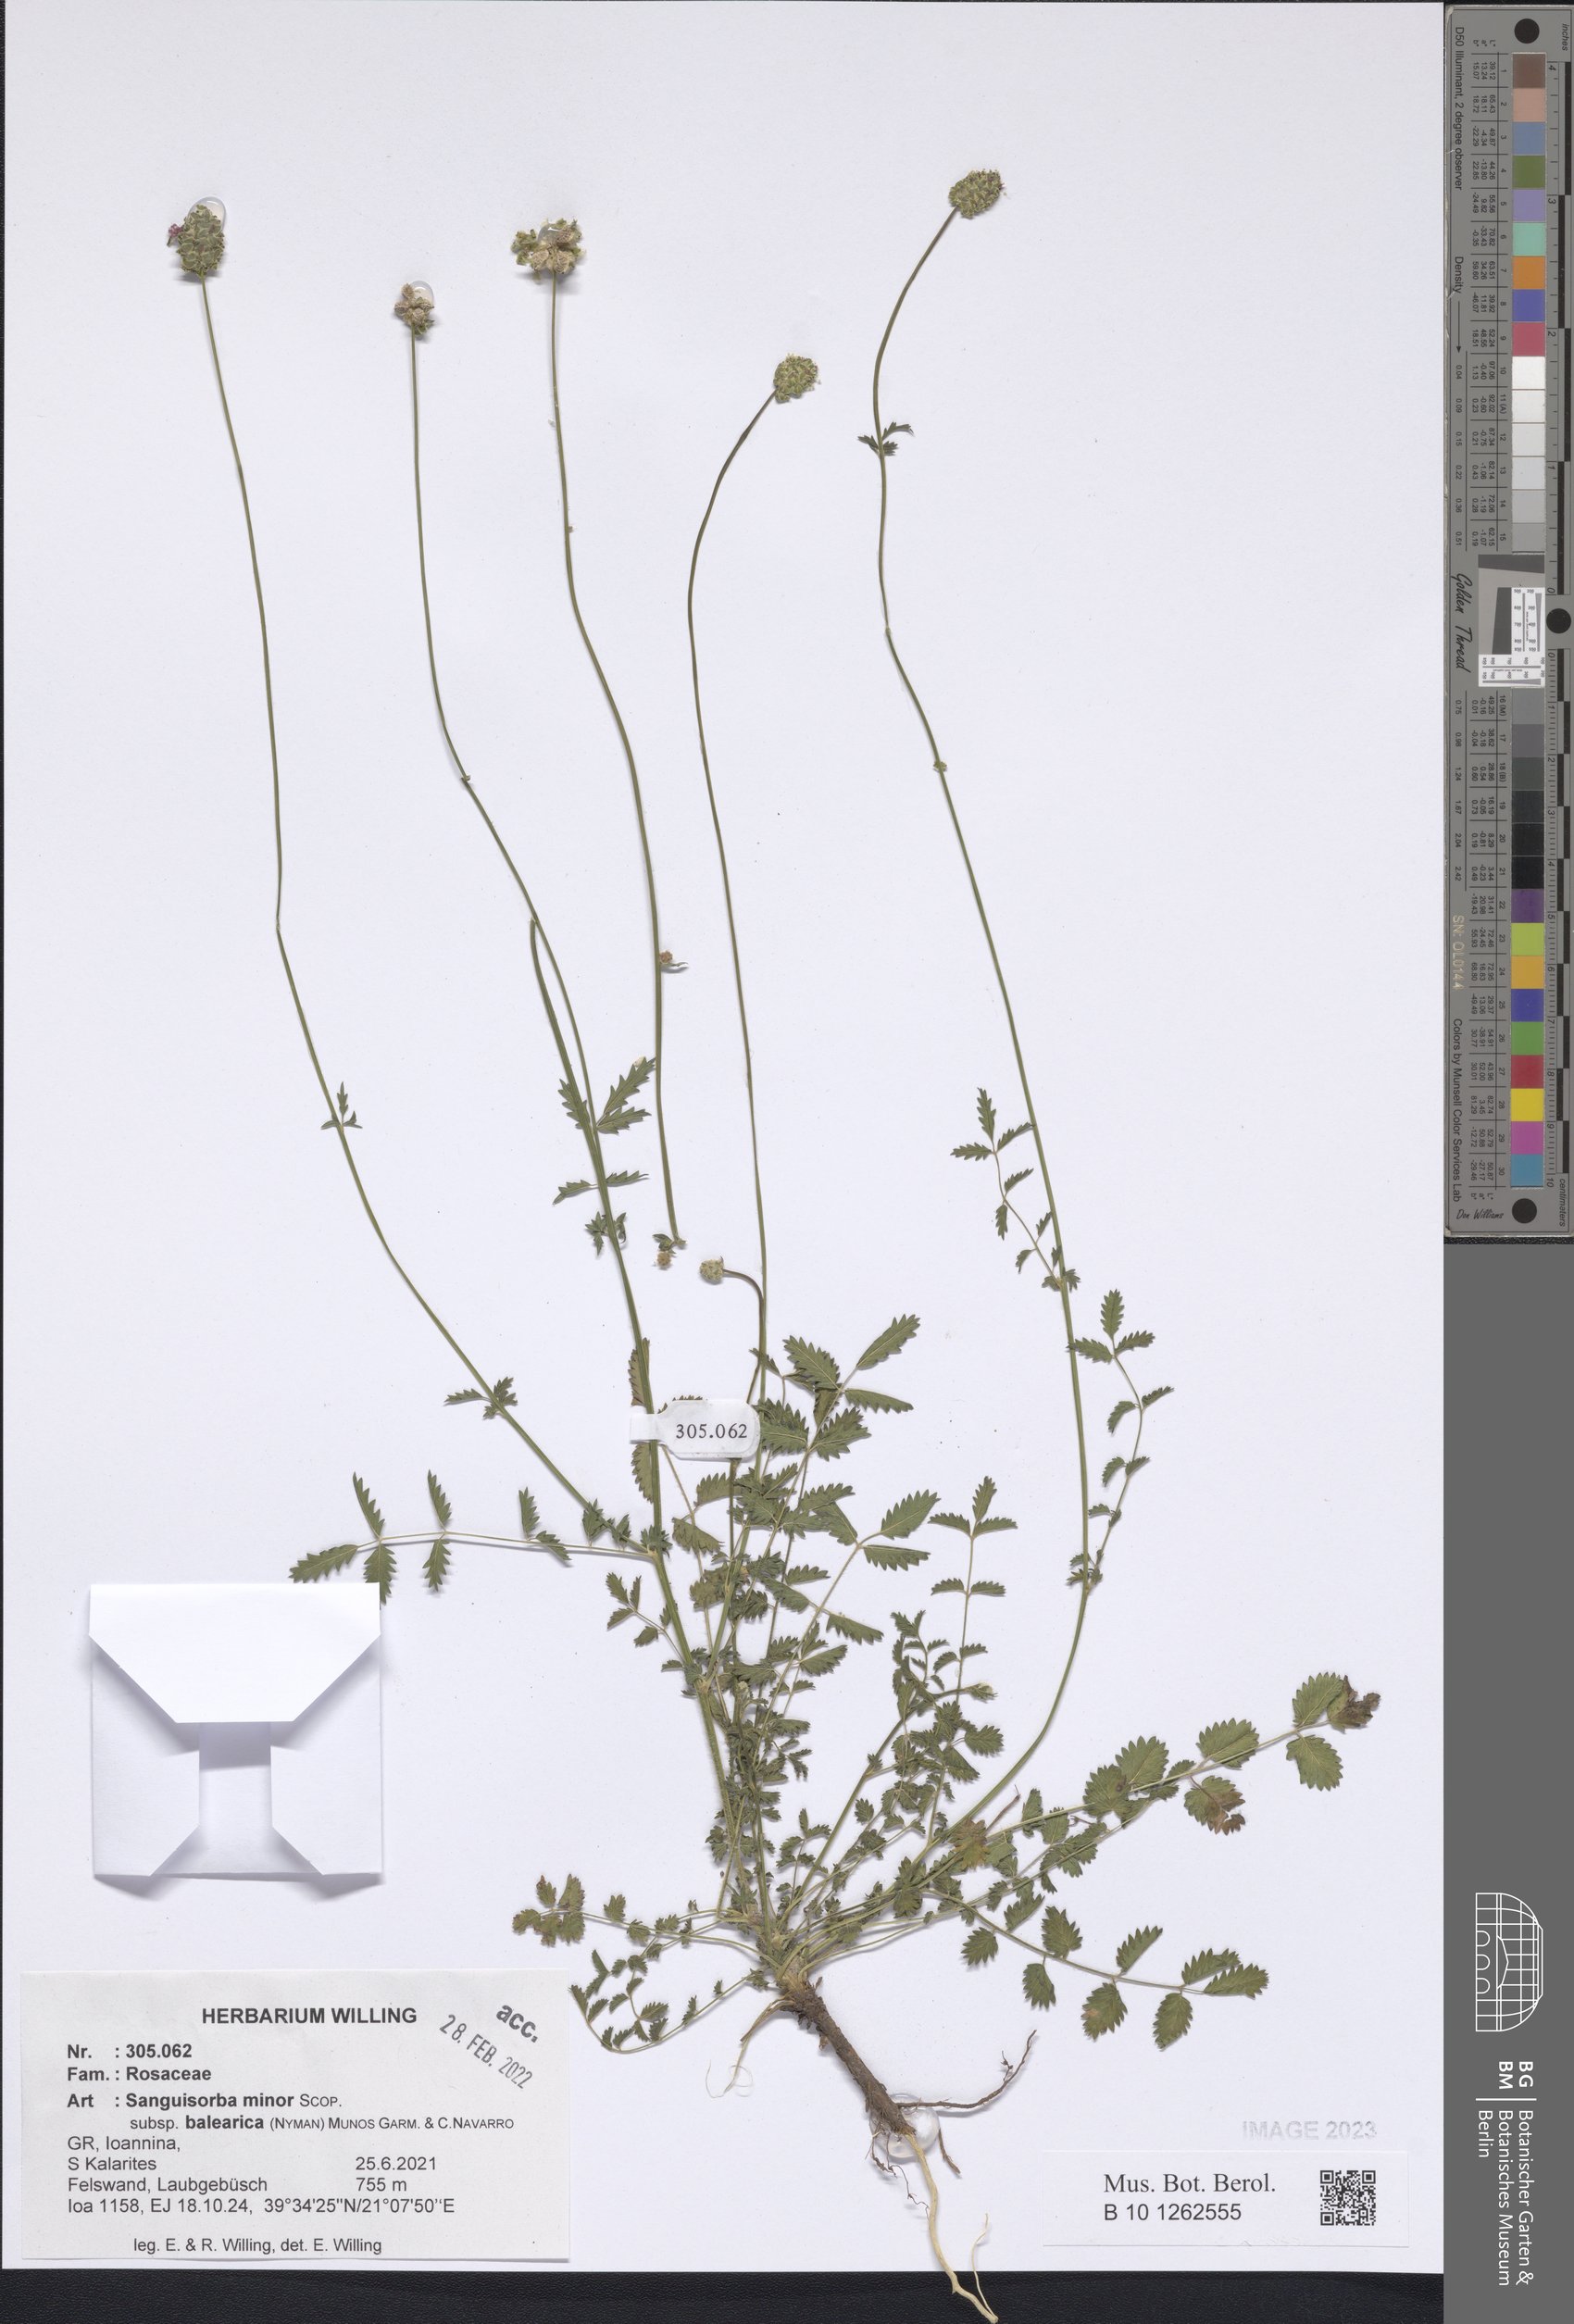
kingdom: Plantae
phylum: Tracheophyta
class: Magnoliopsida
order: Rosales
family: Rosaceae
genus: Poterium
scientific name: Poterium sanguisorba
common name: Salad burnet
